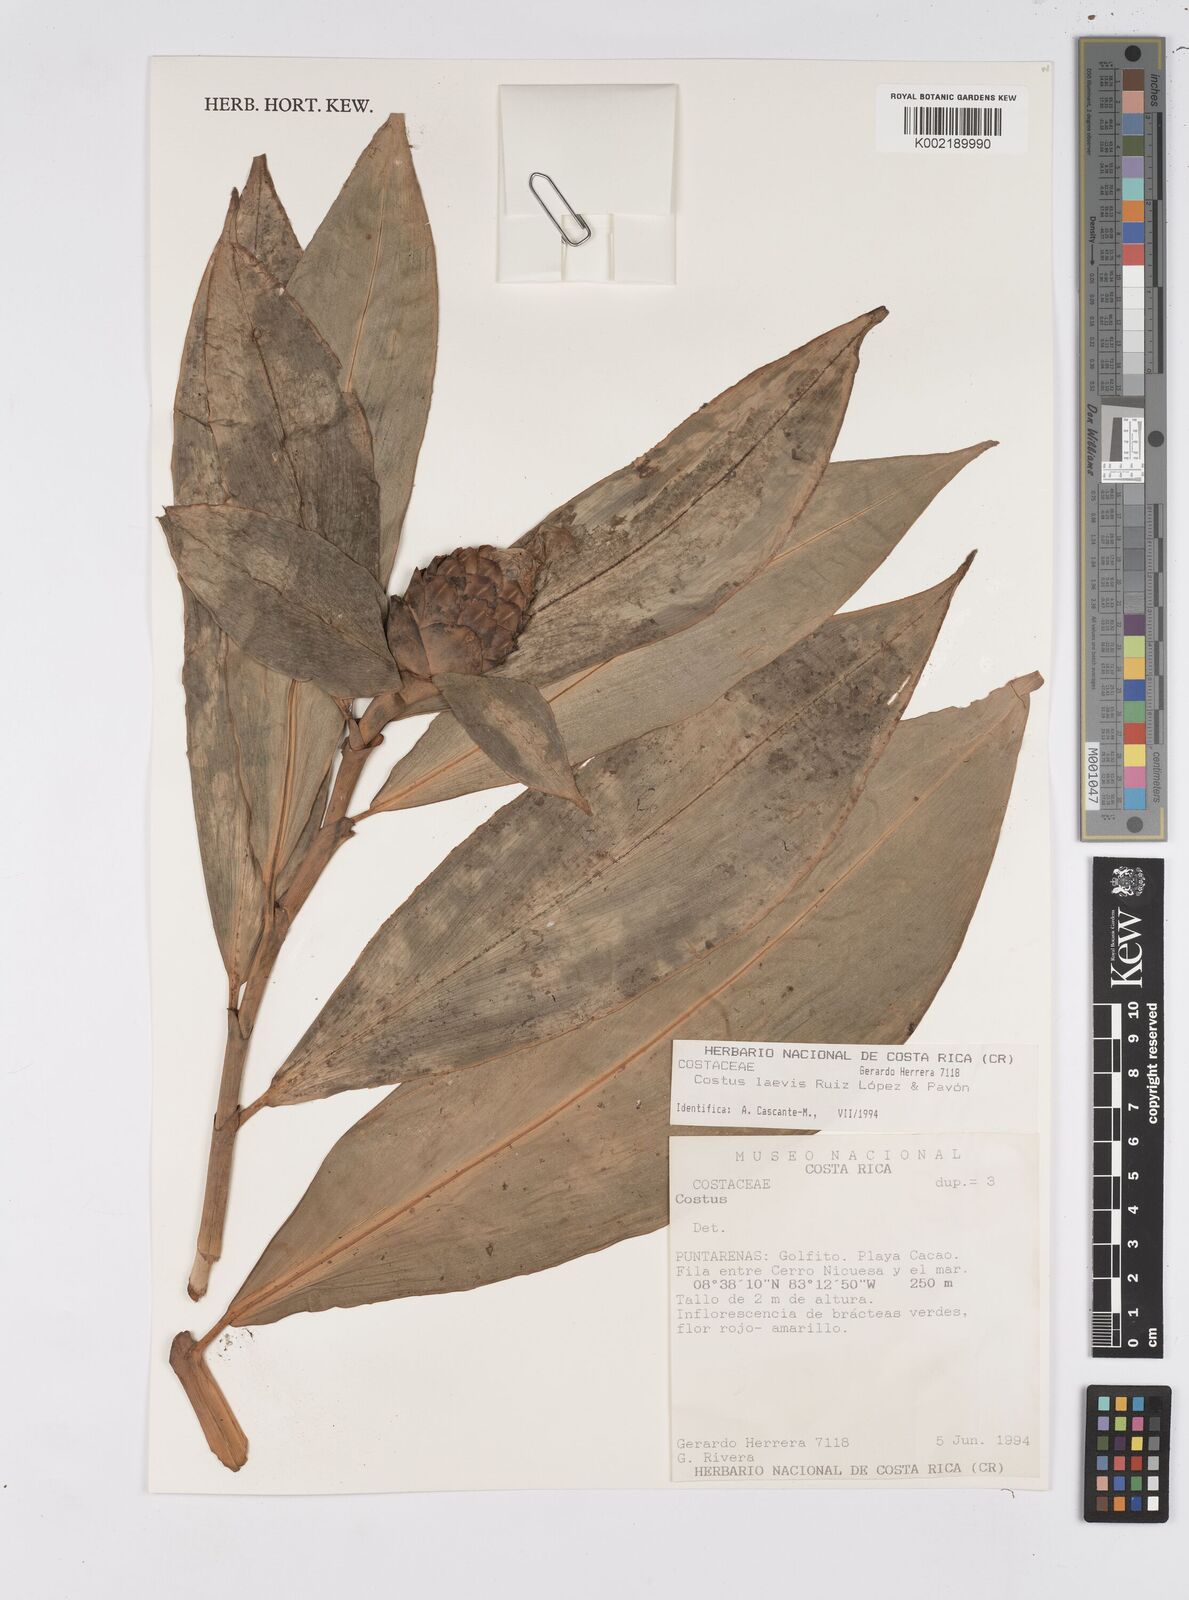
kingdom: Plantae
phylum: Tracheophyta
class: Liliopsida
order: Zingiberales
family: Costaceae
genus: Costus
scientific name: Costus laevis
